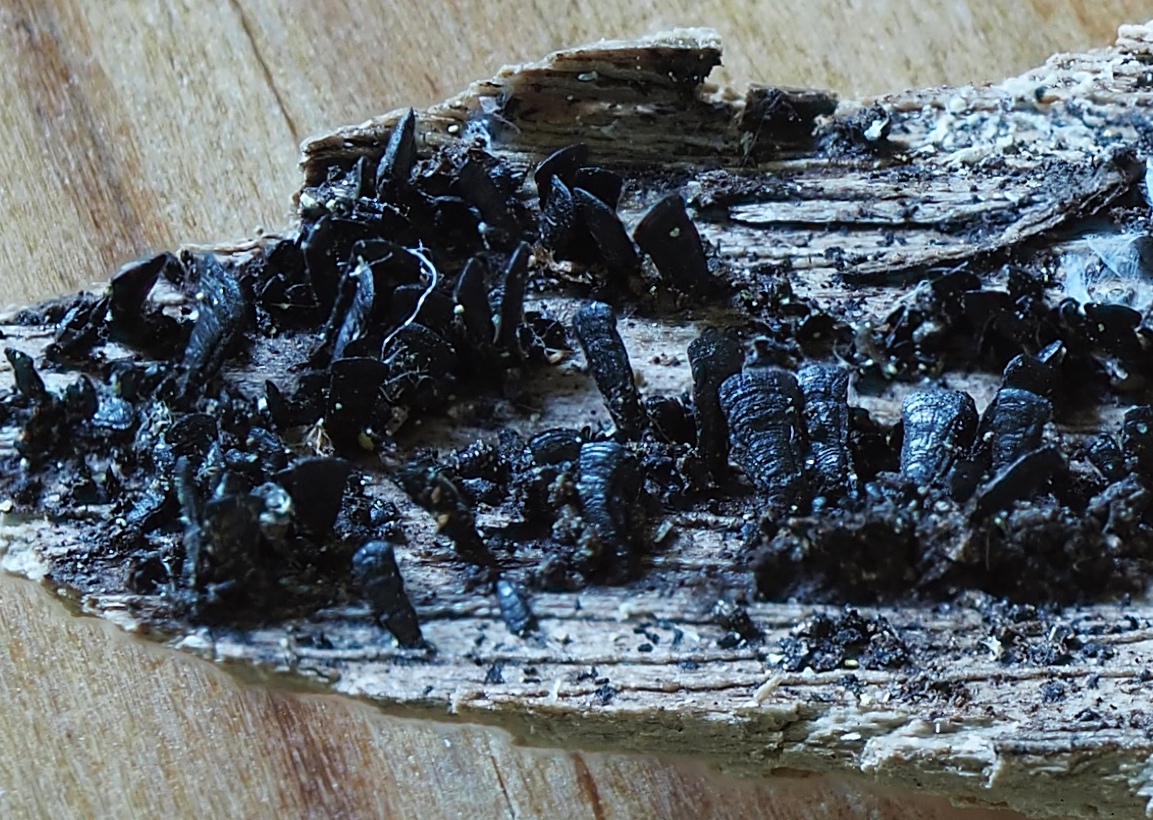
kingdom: Fungi
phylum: Ascomycota
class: Eurotiomycetes
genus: Glyphium
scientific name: Glyphium elatum
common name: kuløkse
